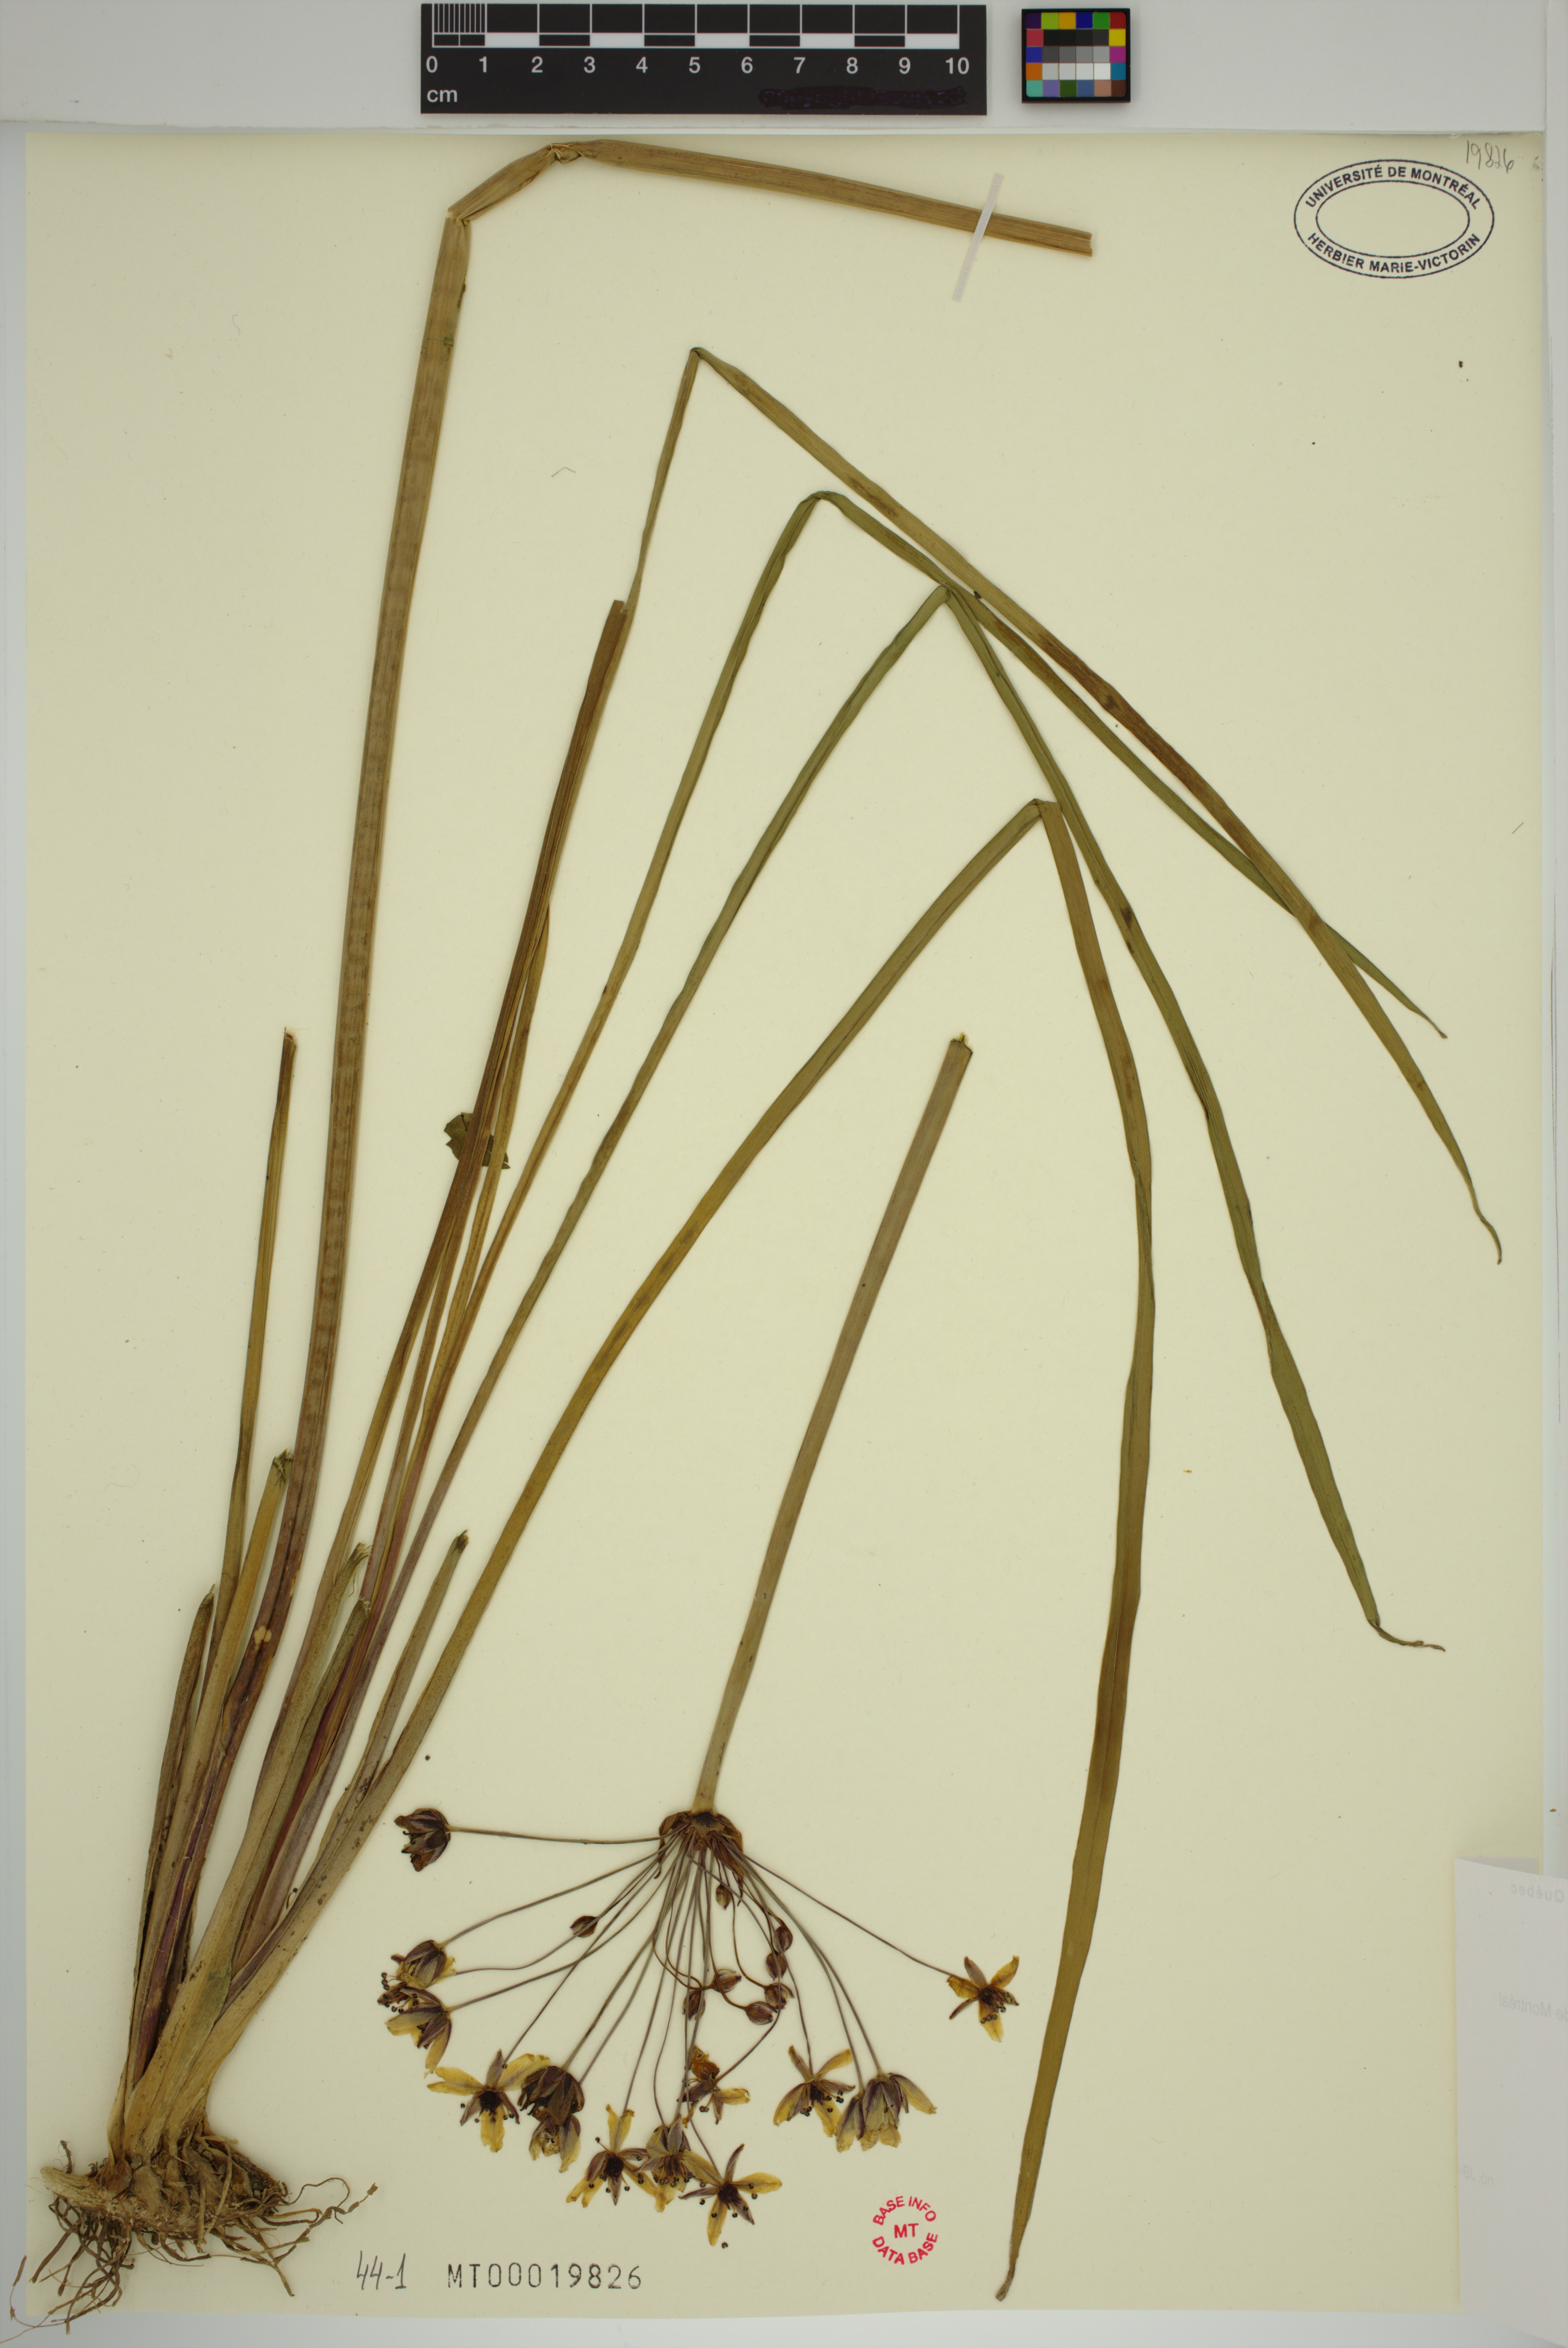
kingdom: Plantae
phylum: Tracheophyta
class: Liliopsida
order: Alismatales
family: Butomaceae
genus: Butomus
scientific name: Butomus umbellatus
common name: Flowering-rush
